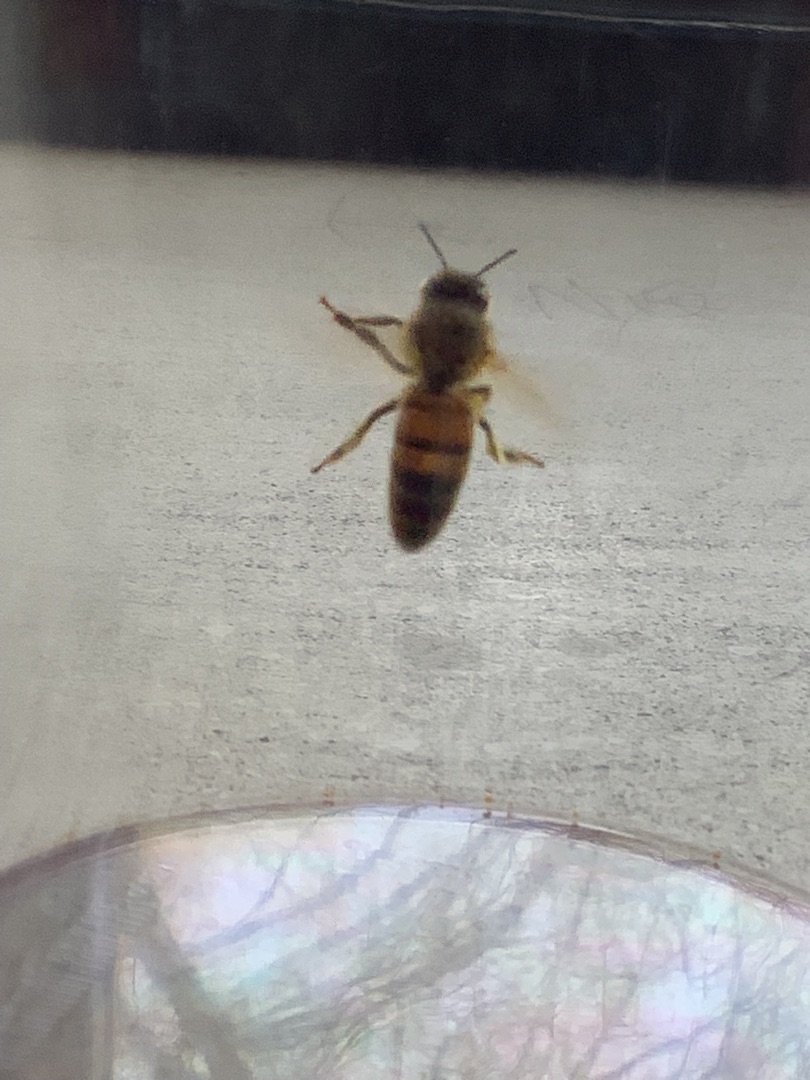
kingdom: Animalia
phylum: Arthropoda
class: Insecta
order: Hymenoptera
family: Apidae
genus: Apis
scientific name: Apis mellifera
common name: Honningbi
